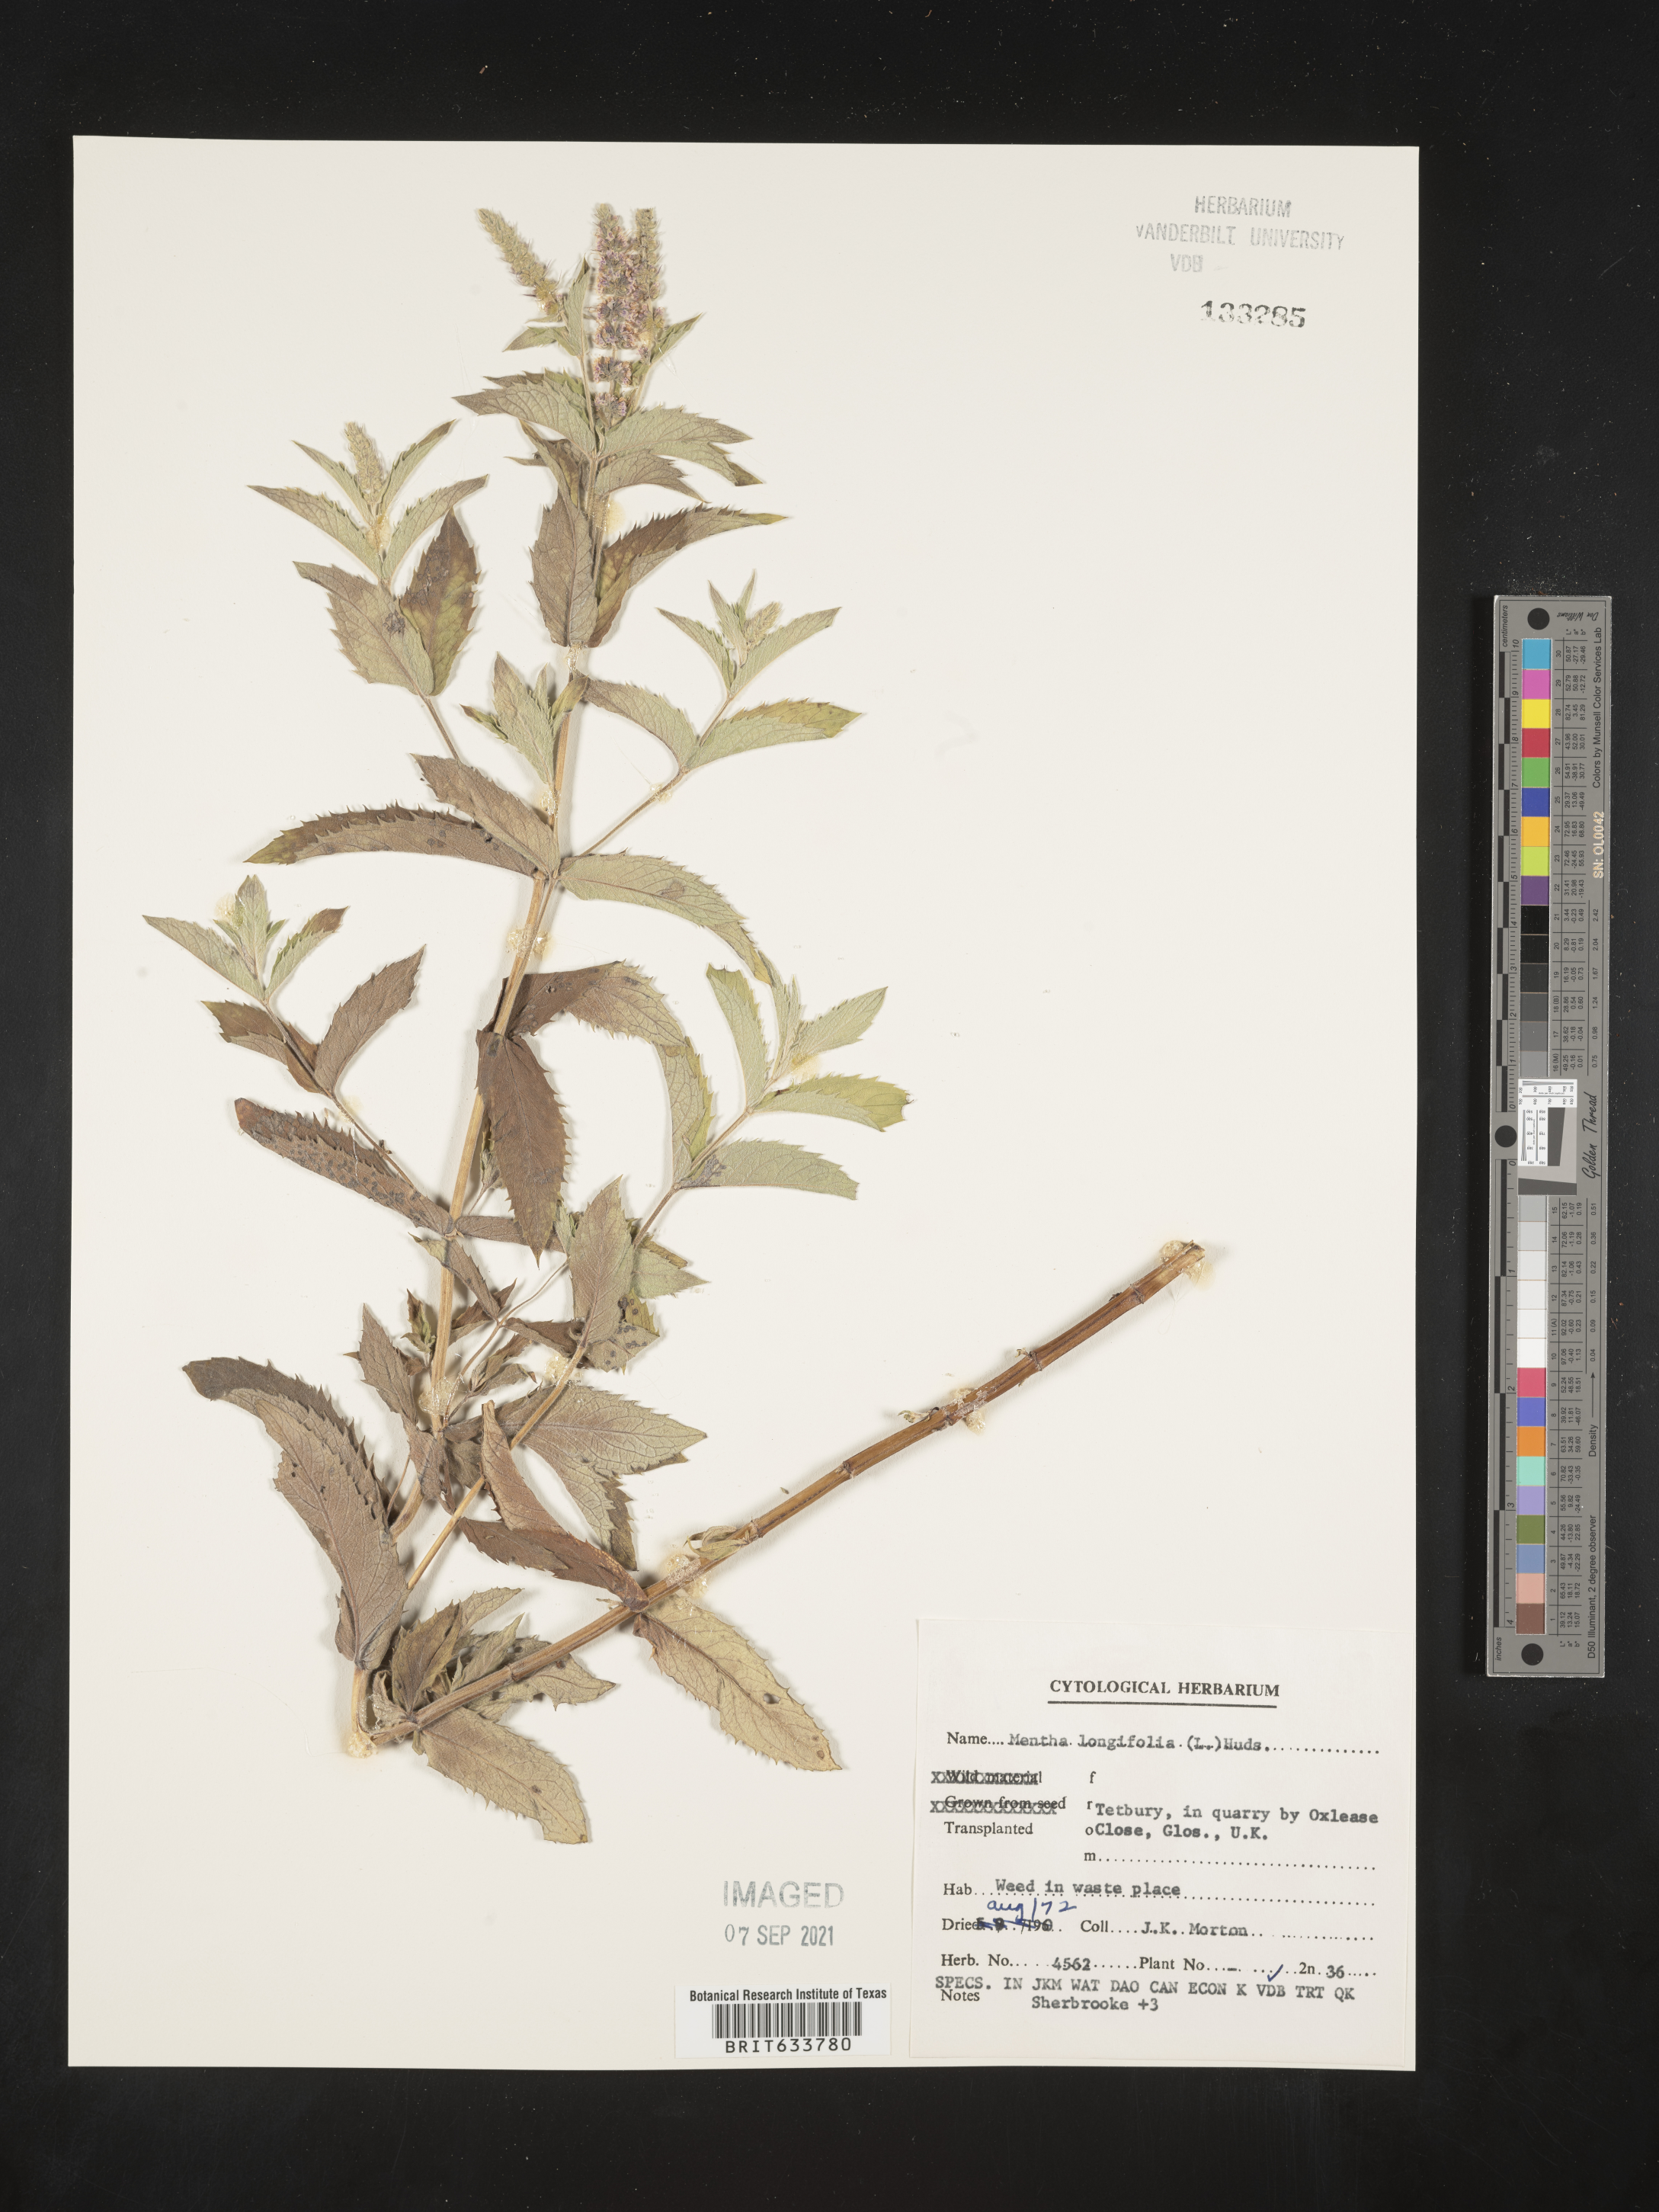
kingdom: Plantae
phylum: Tracheophyta
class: Magnoliopsida
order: Lamiales
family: Lamiaceae
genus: Mentha
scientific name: Mentha
